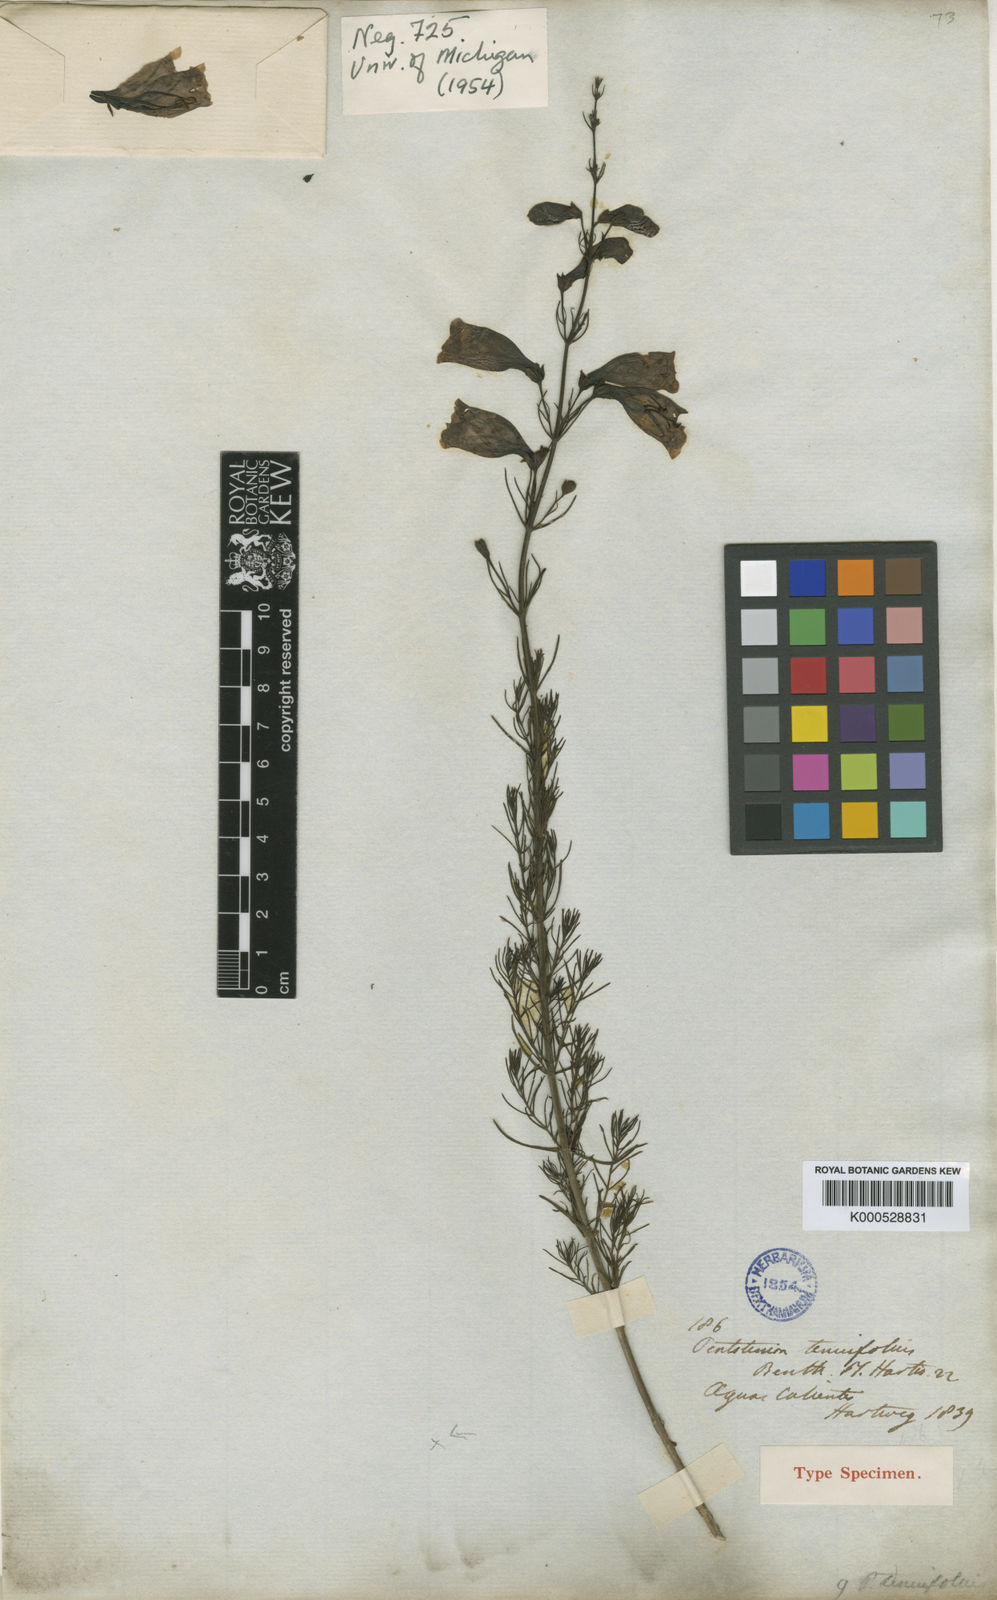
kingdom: Plantae
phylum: Tracheophyta
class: Magnoliopsida
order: Lamiales
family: Plantaginaceae
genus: Penstemon
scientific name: Penstemon tenuifolius
